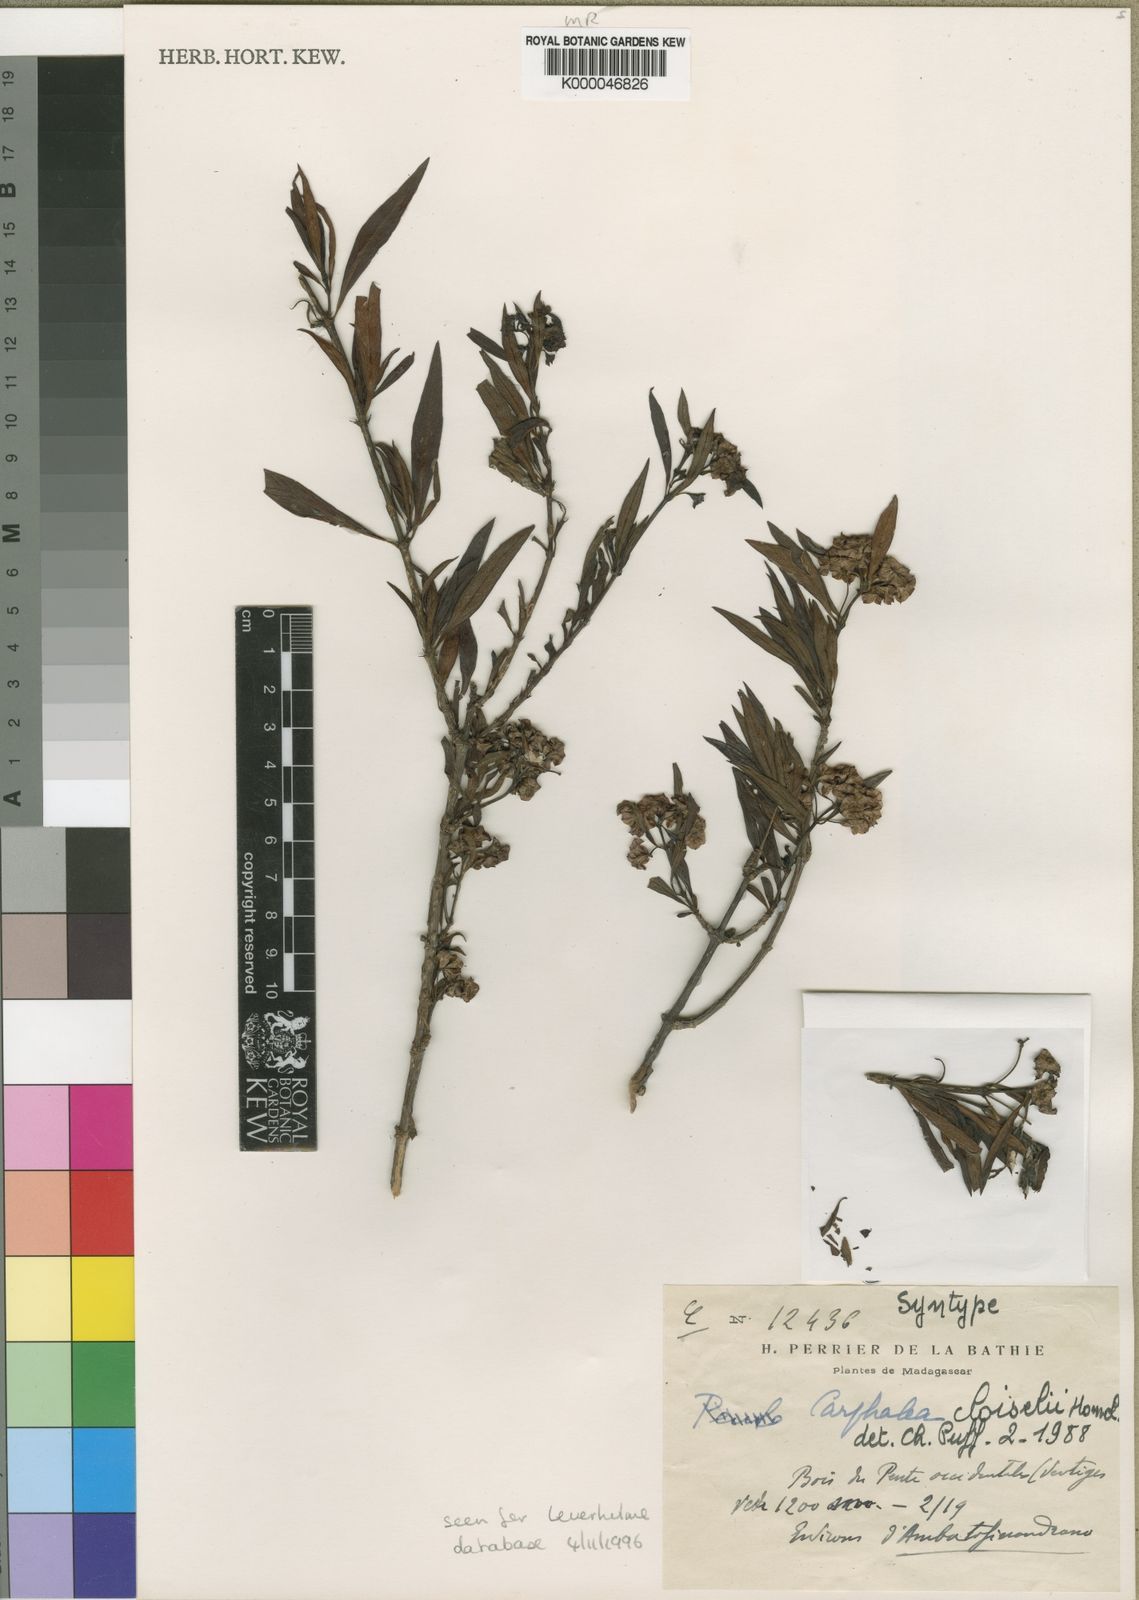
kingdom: Plantae
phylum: Tracheophyta
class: Magnoliopsida
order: Gentianales
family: Rubiaceae
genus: Carphalea
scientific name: Carphalea cloiselii
